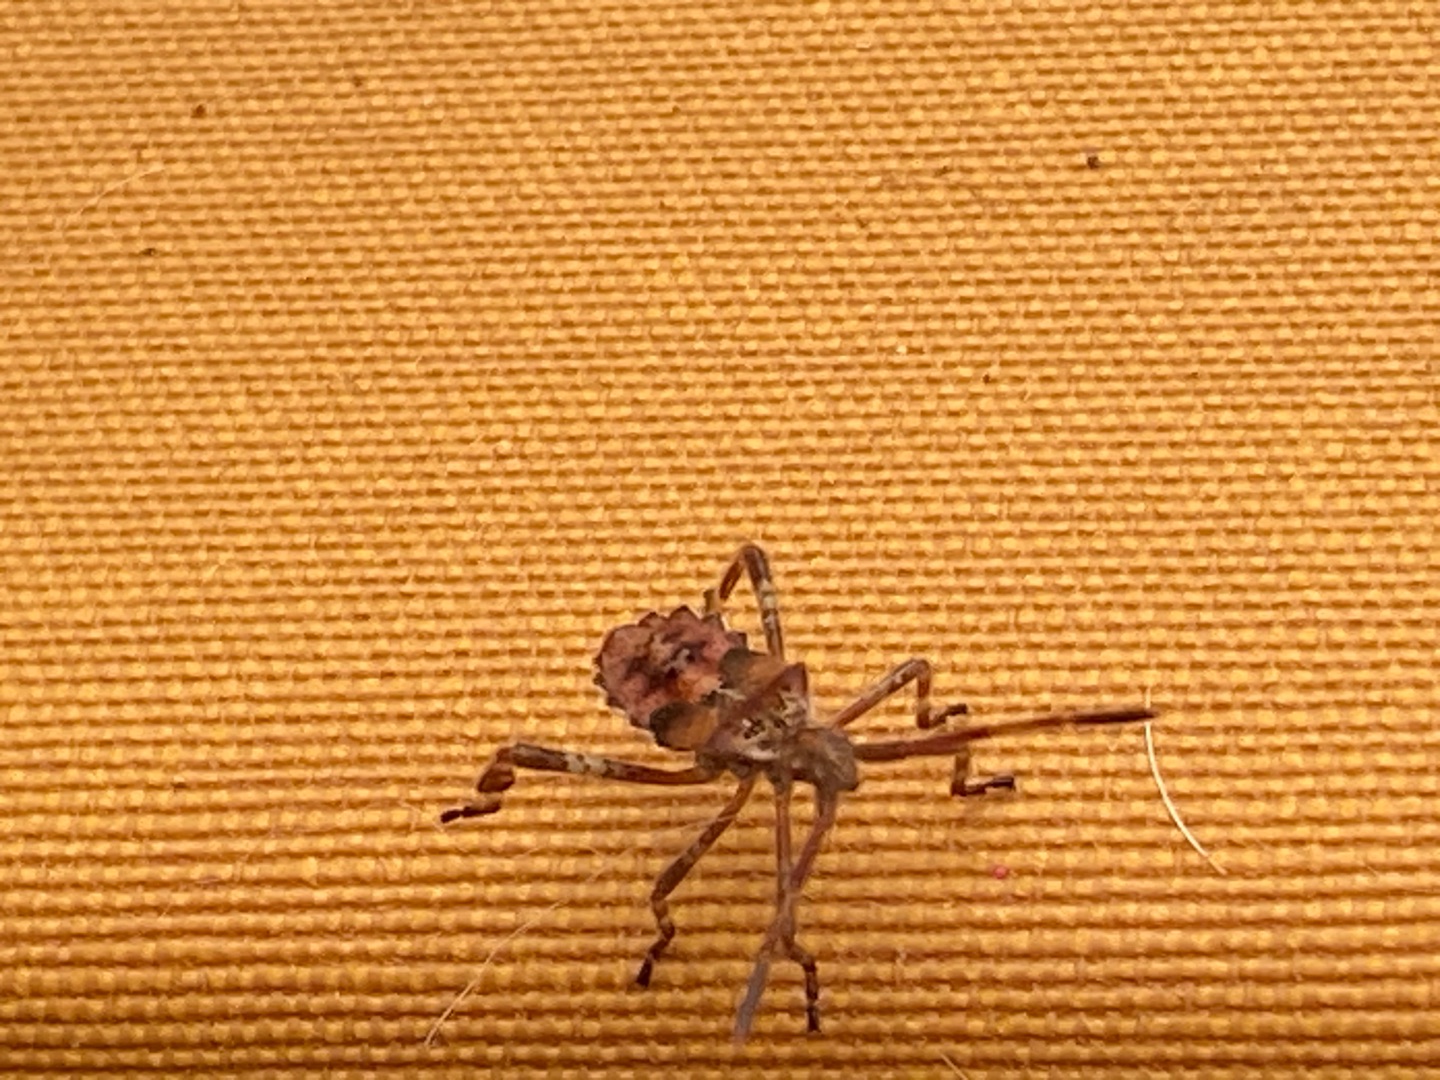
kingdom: Animalia
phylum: Arthropoda
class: Insecta
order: Hemiptera
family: Coreidae
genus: Leptoglossus
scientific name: Leptoglossus occidentalis
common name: Amerikansk fyrretæge
